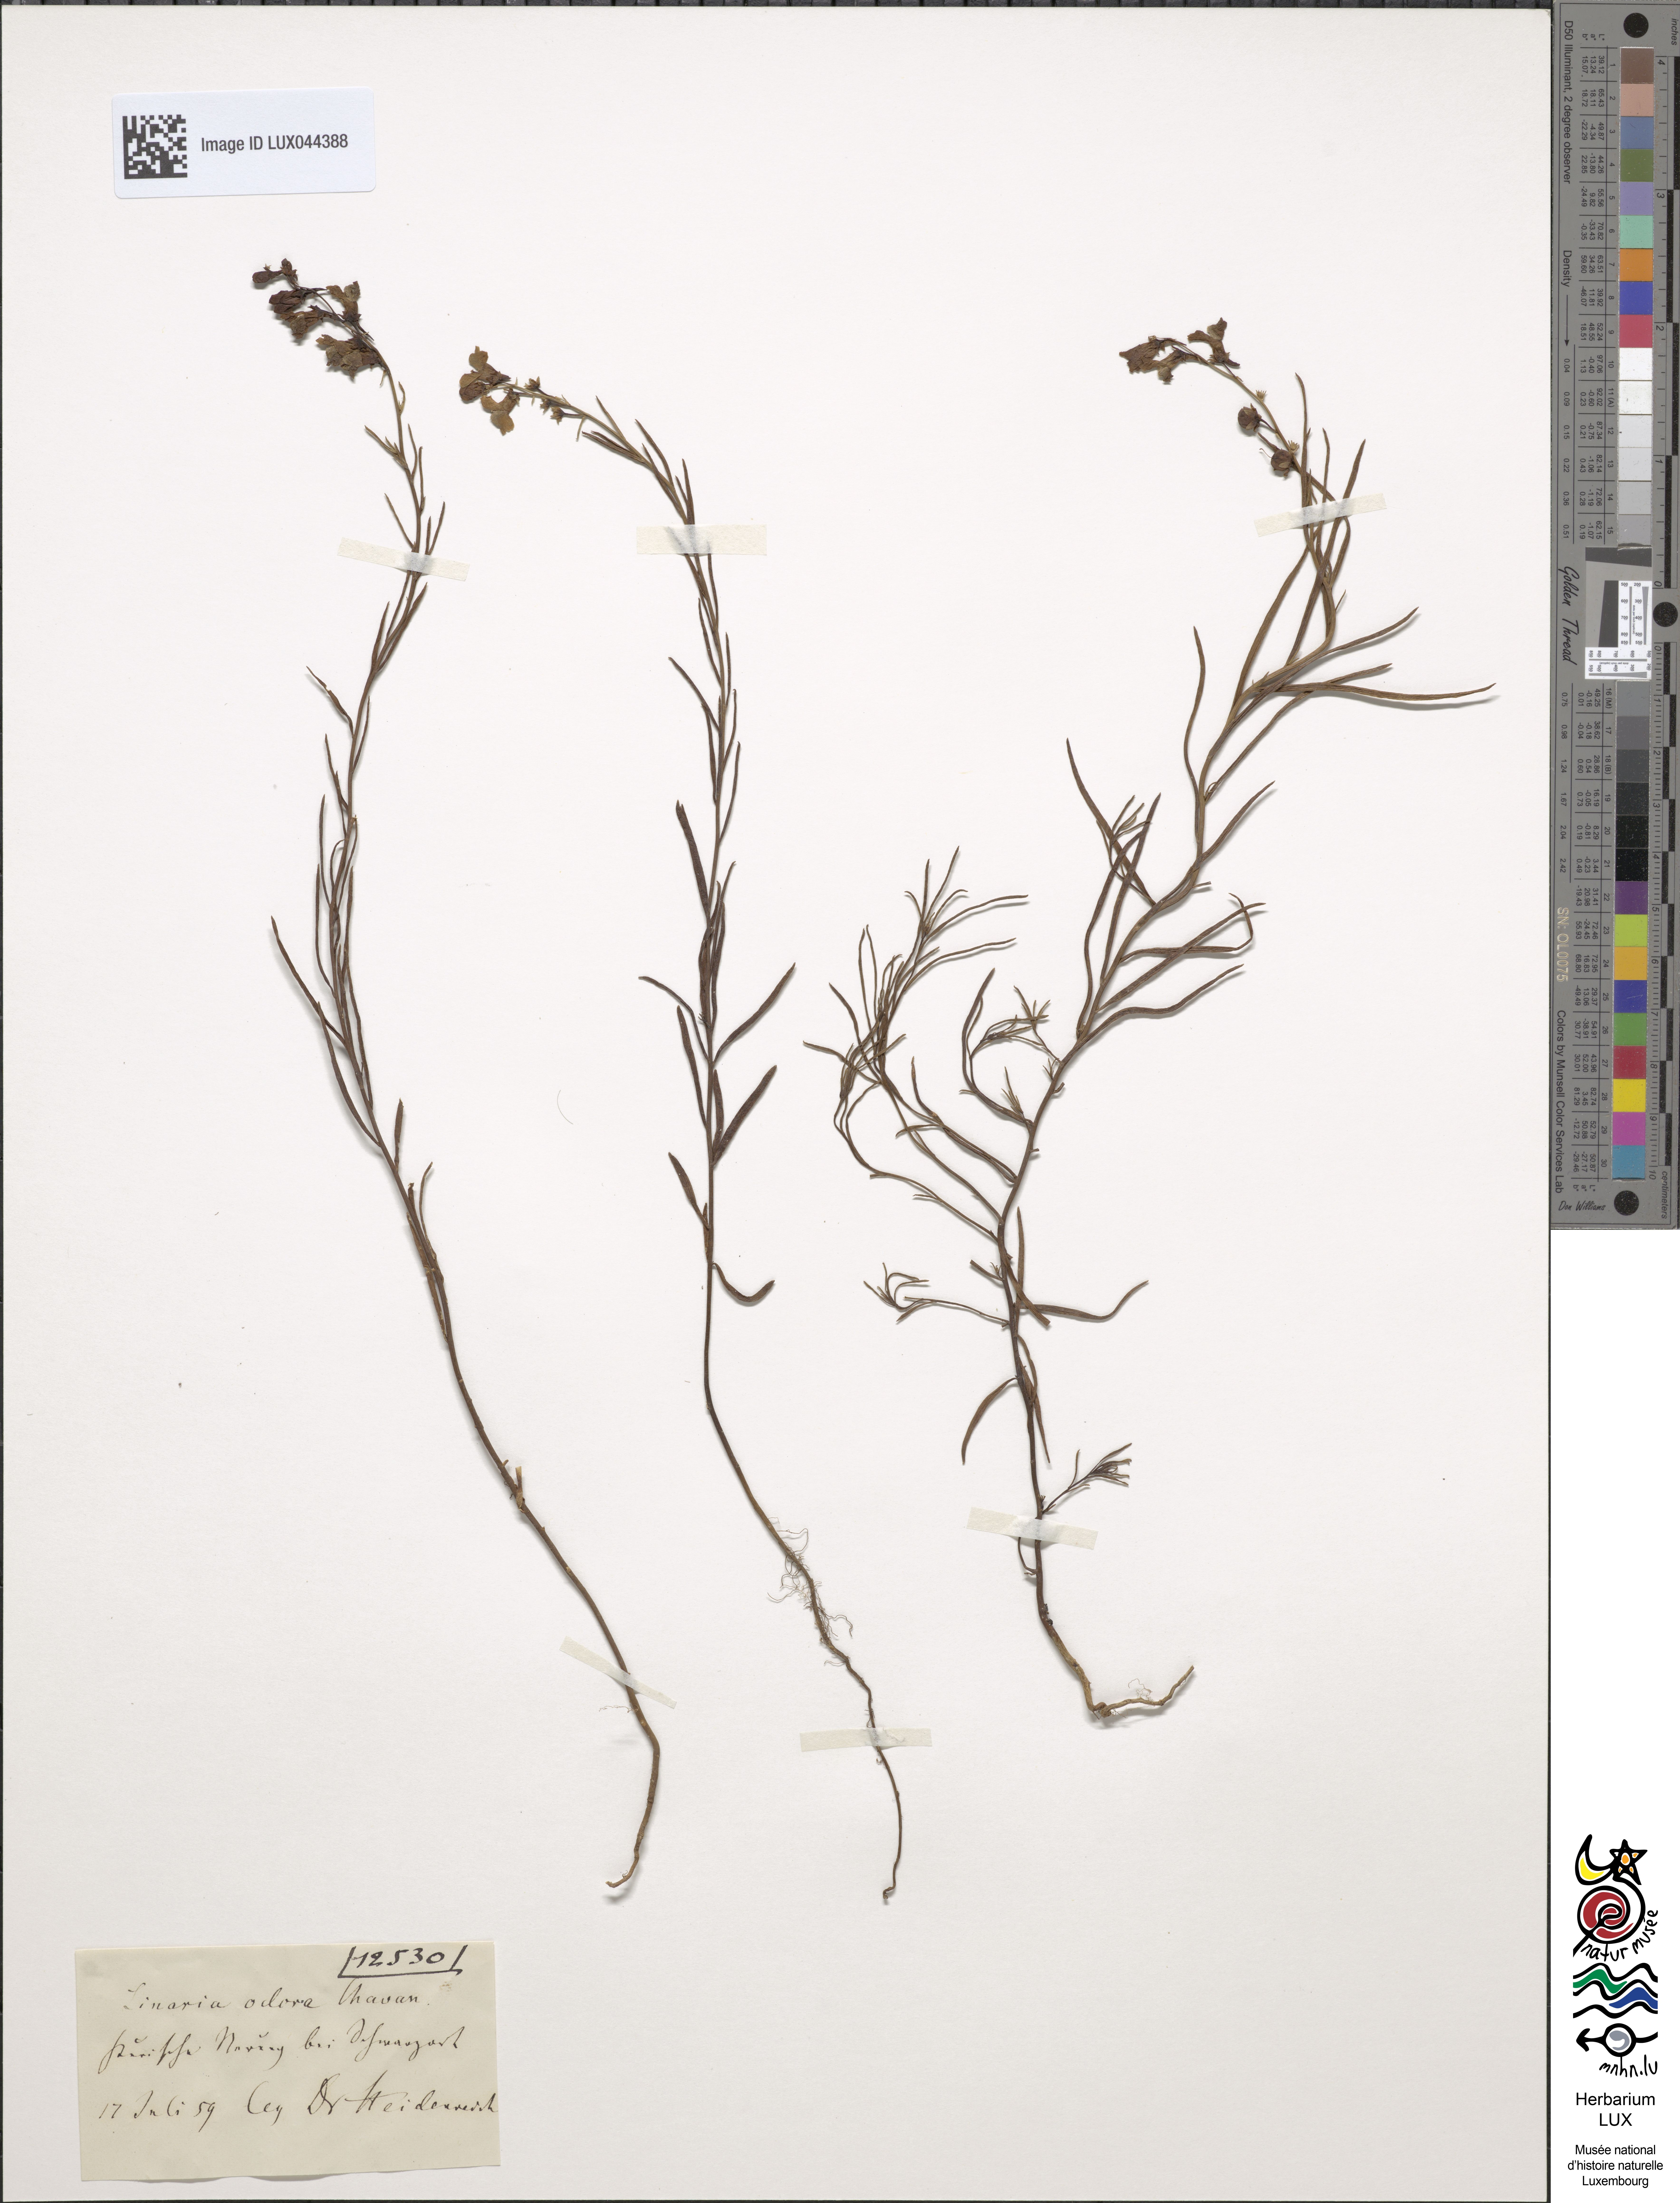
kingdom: Plantae
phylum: Tracheophyta
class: Magnoliopsida
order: Lamiales
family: Plantaginaceae
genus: Linaria
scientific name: Linaria odora
